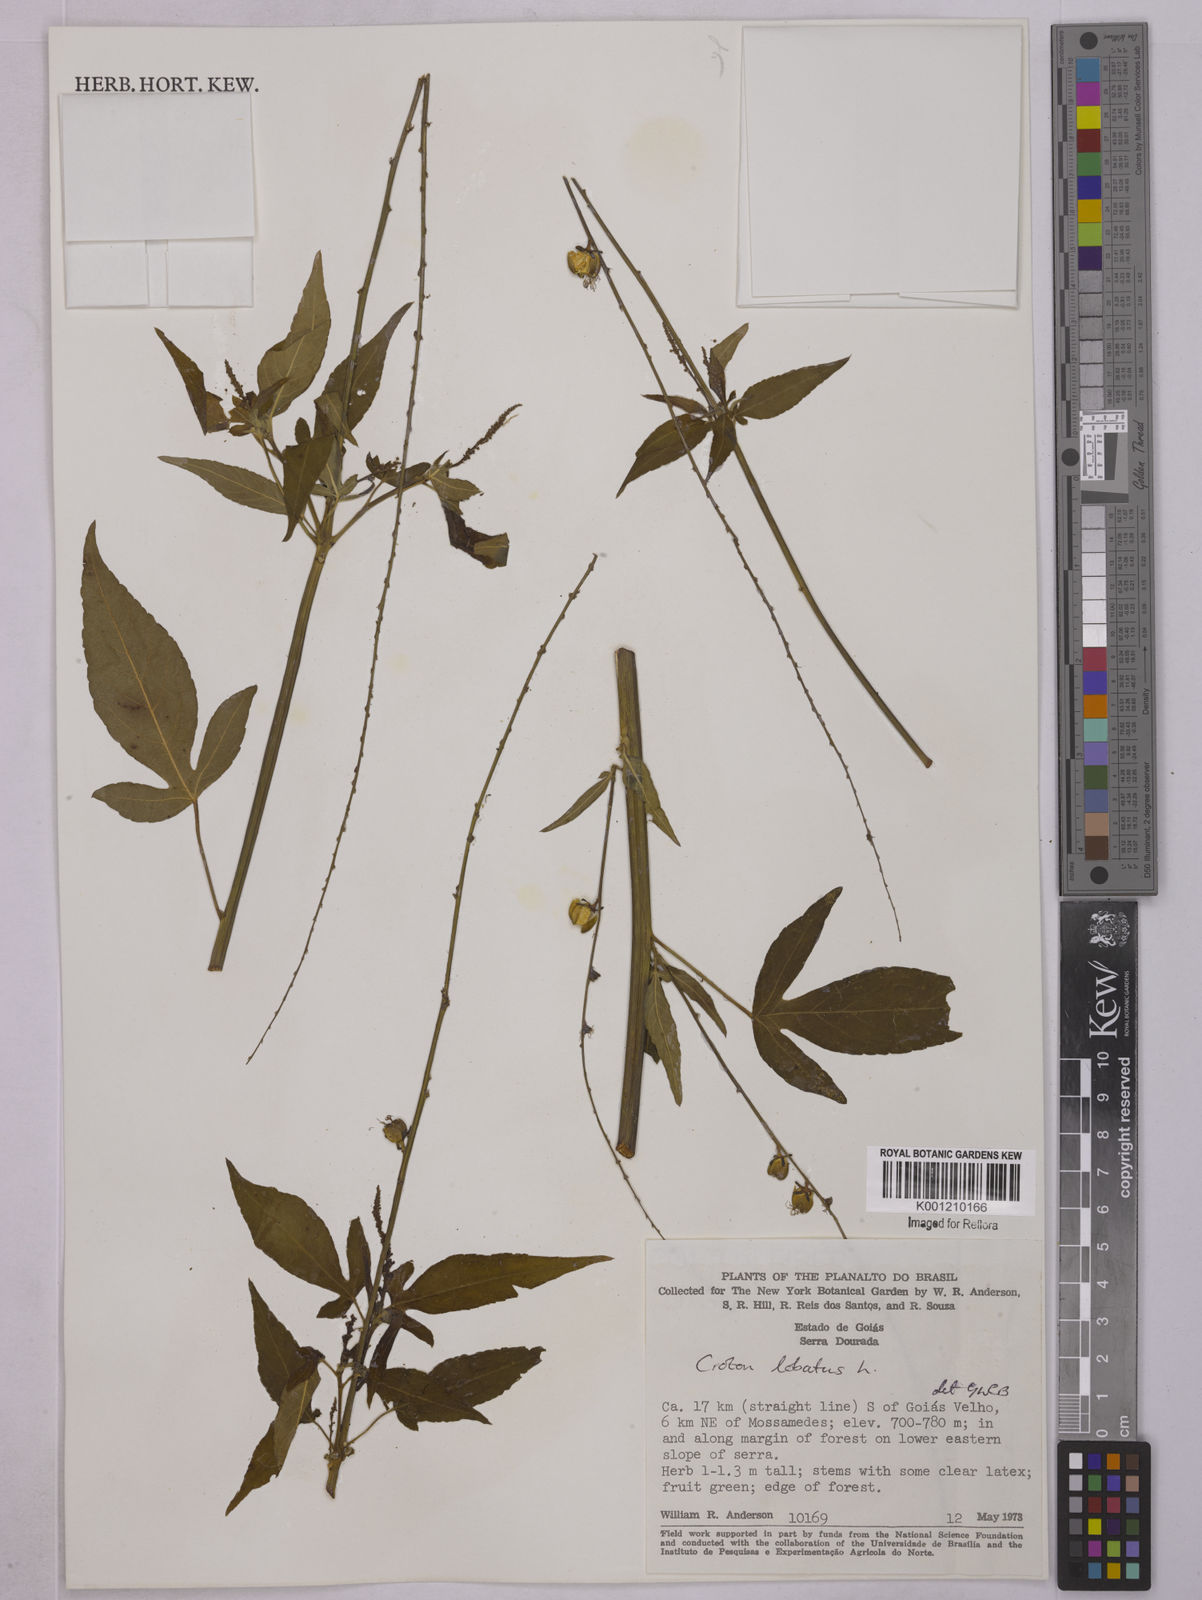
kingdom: Plantae
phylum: Tracheophyta
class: Magnoliopsida
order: Malpighiales
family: Euphorbiaceae
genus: Astraea
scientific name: Astraea lobata
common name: Lobed croton
